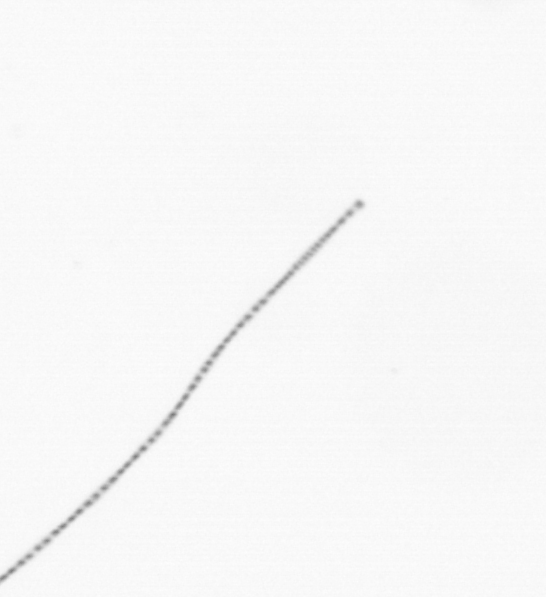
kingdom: Chromista
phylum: Ochrophyta
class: Bacillariophyceae
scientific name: Bacillariophyceae
